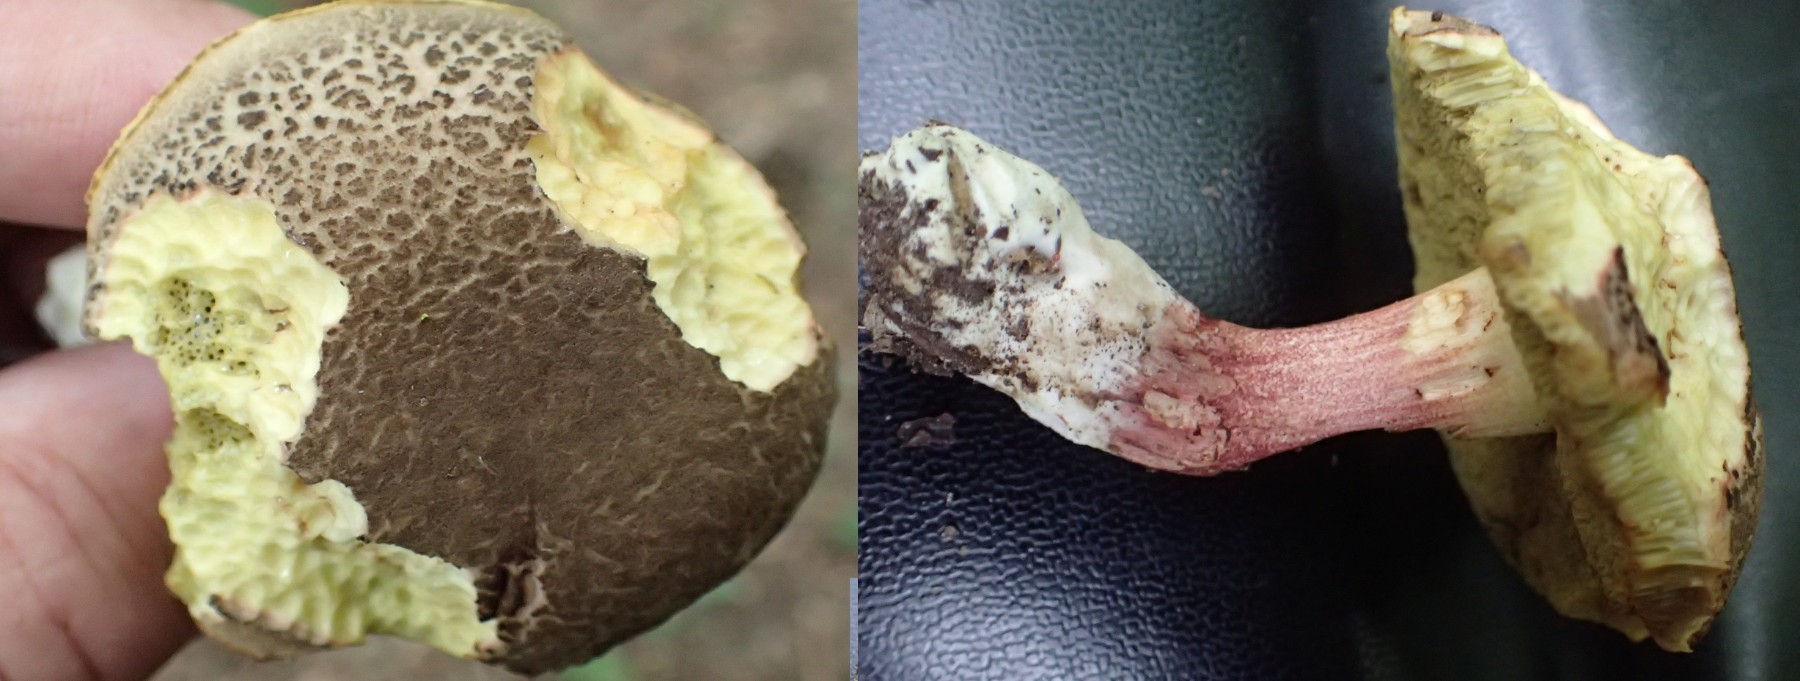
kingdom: Fungi
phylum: Basidiomycota
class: Agaricomycetes
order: Boletales
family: Boletaceae
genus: Xerocomellus
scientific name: Xerocomellus
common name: dværgrørhat
